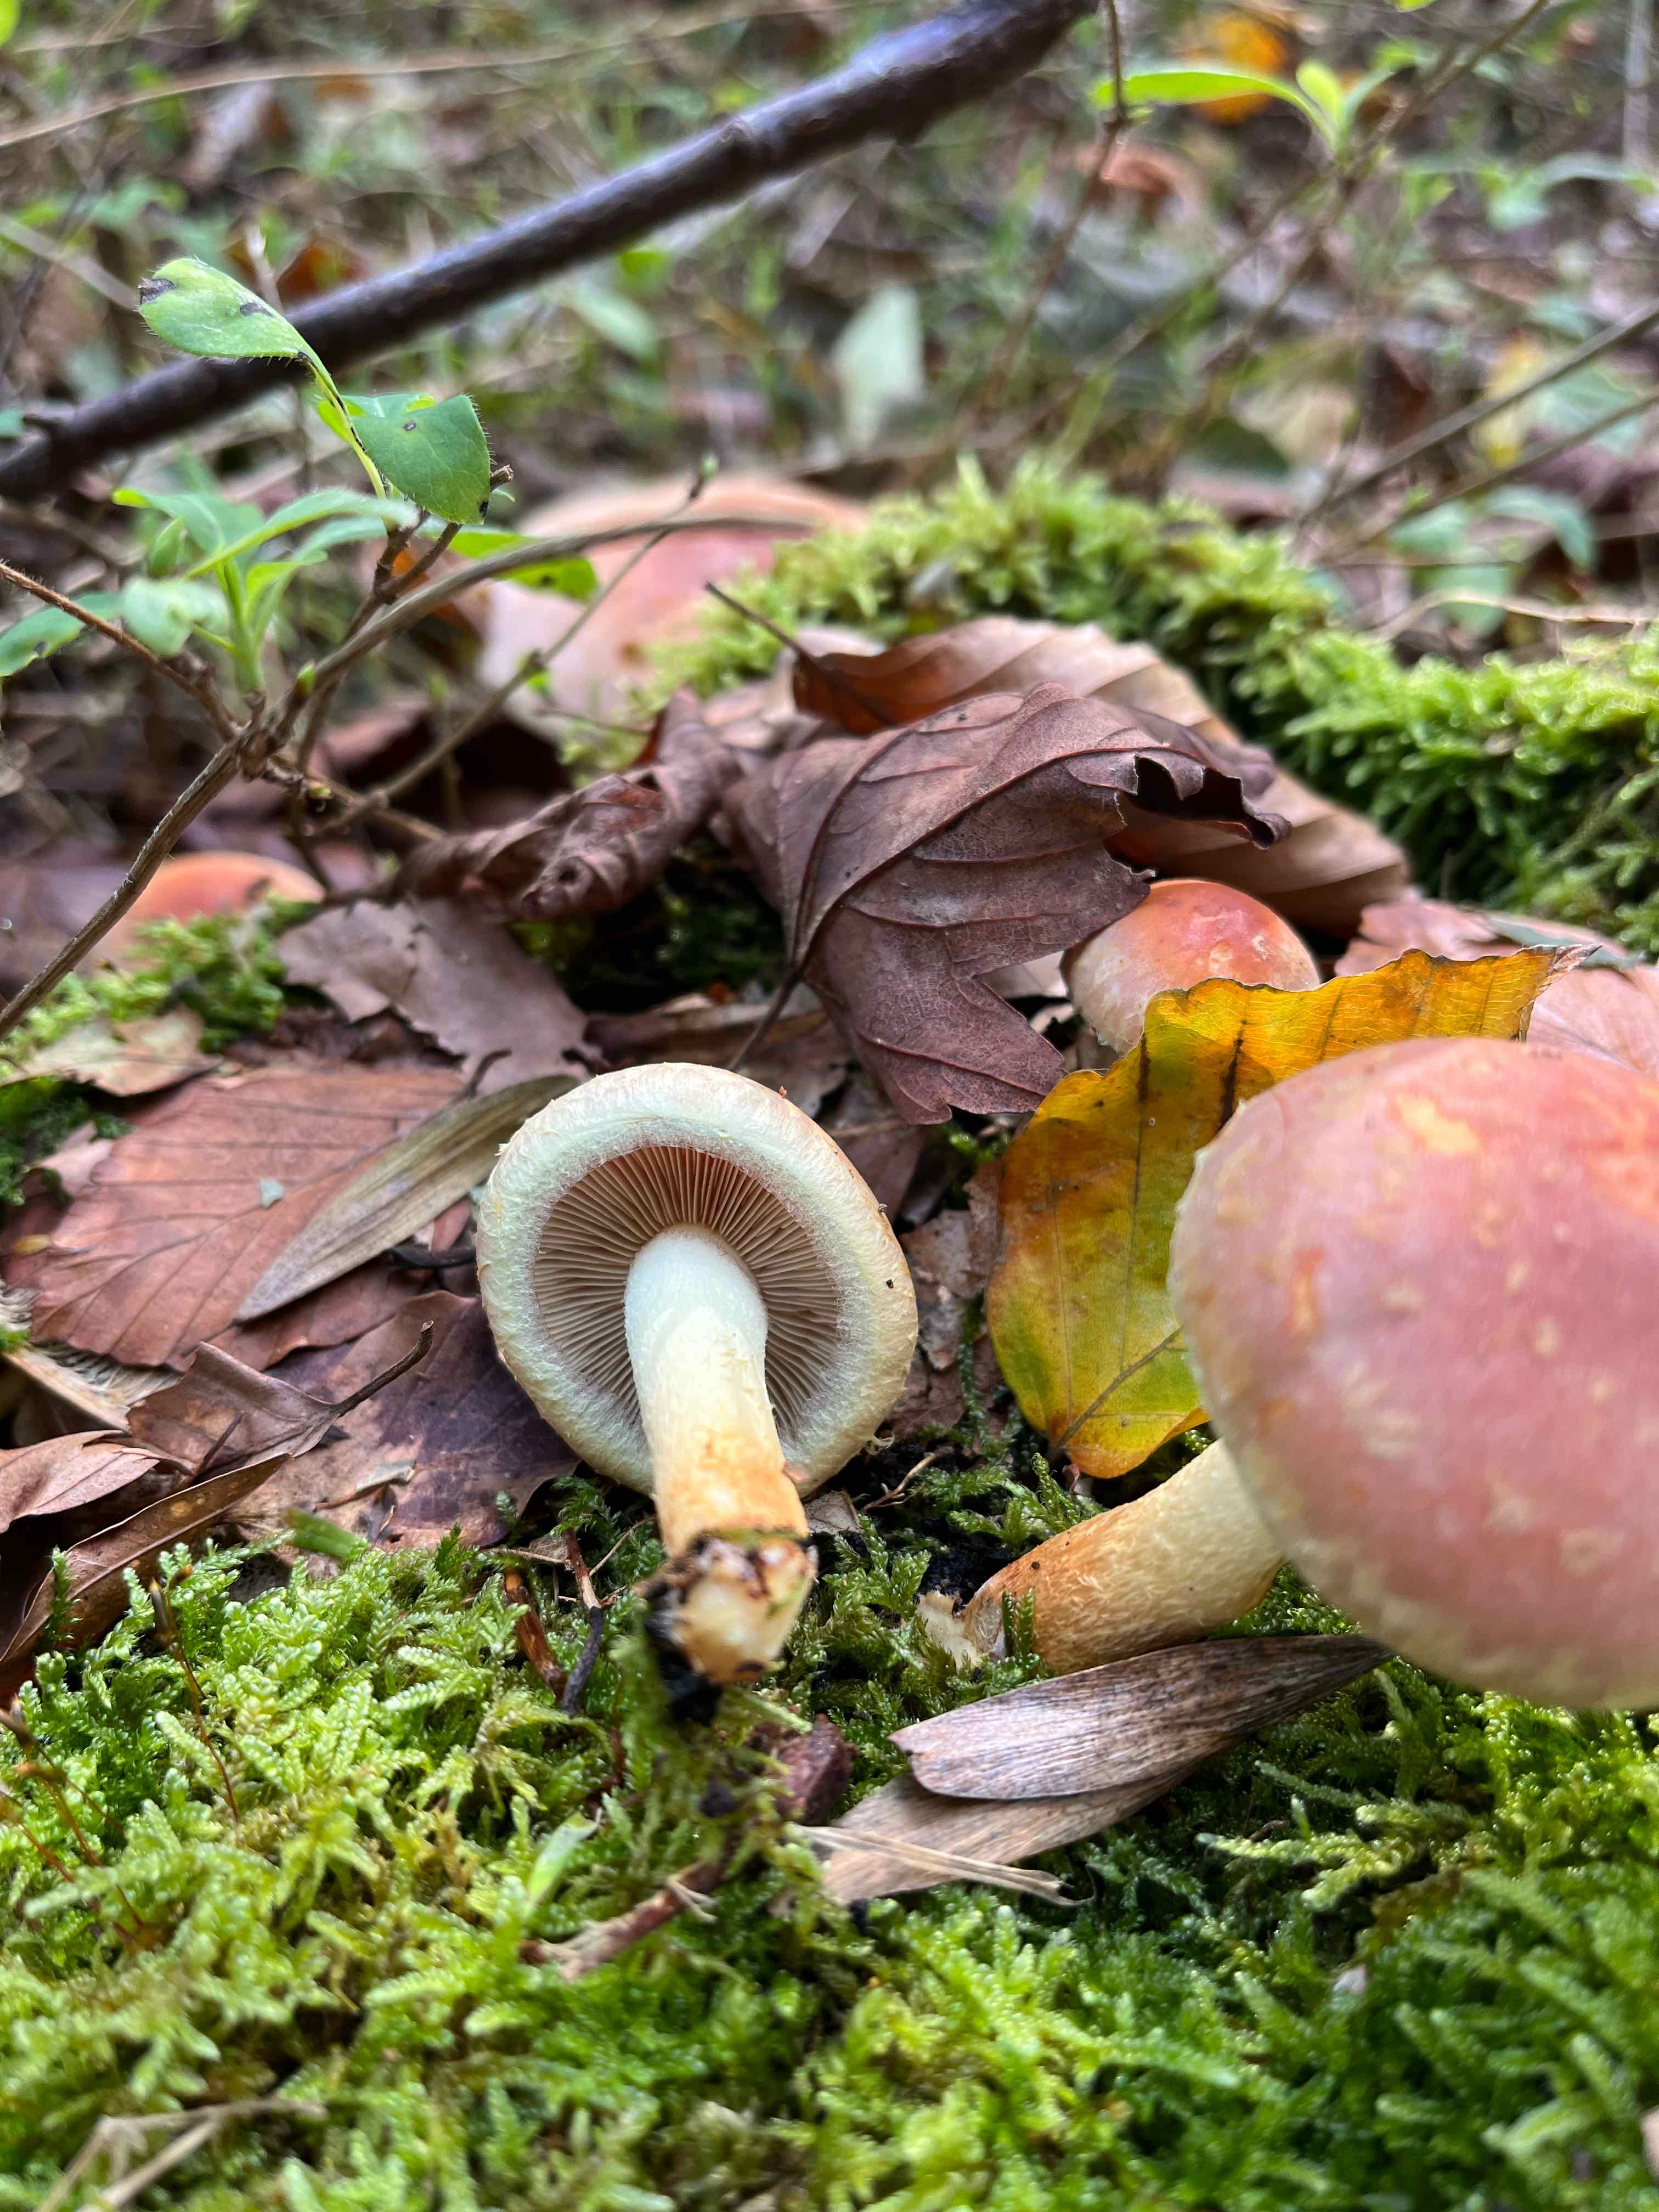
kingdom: Fungi
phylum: Basidiomycota
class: Agaricomycetes
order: Agaricales
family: Strophariaceae
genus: Hypholoma
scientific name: Hypholoma lateritium
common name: teglrød svovlhat
